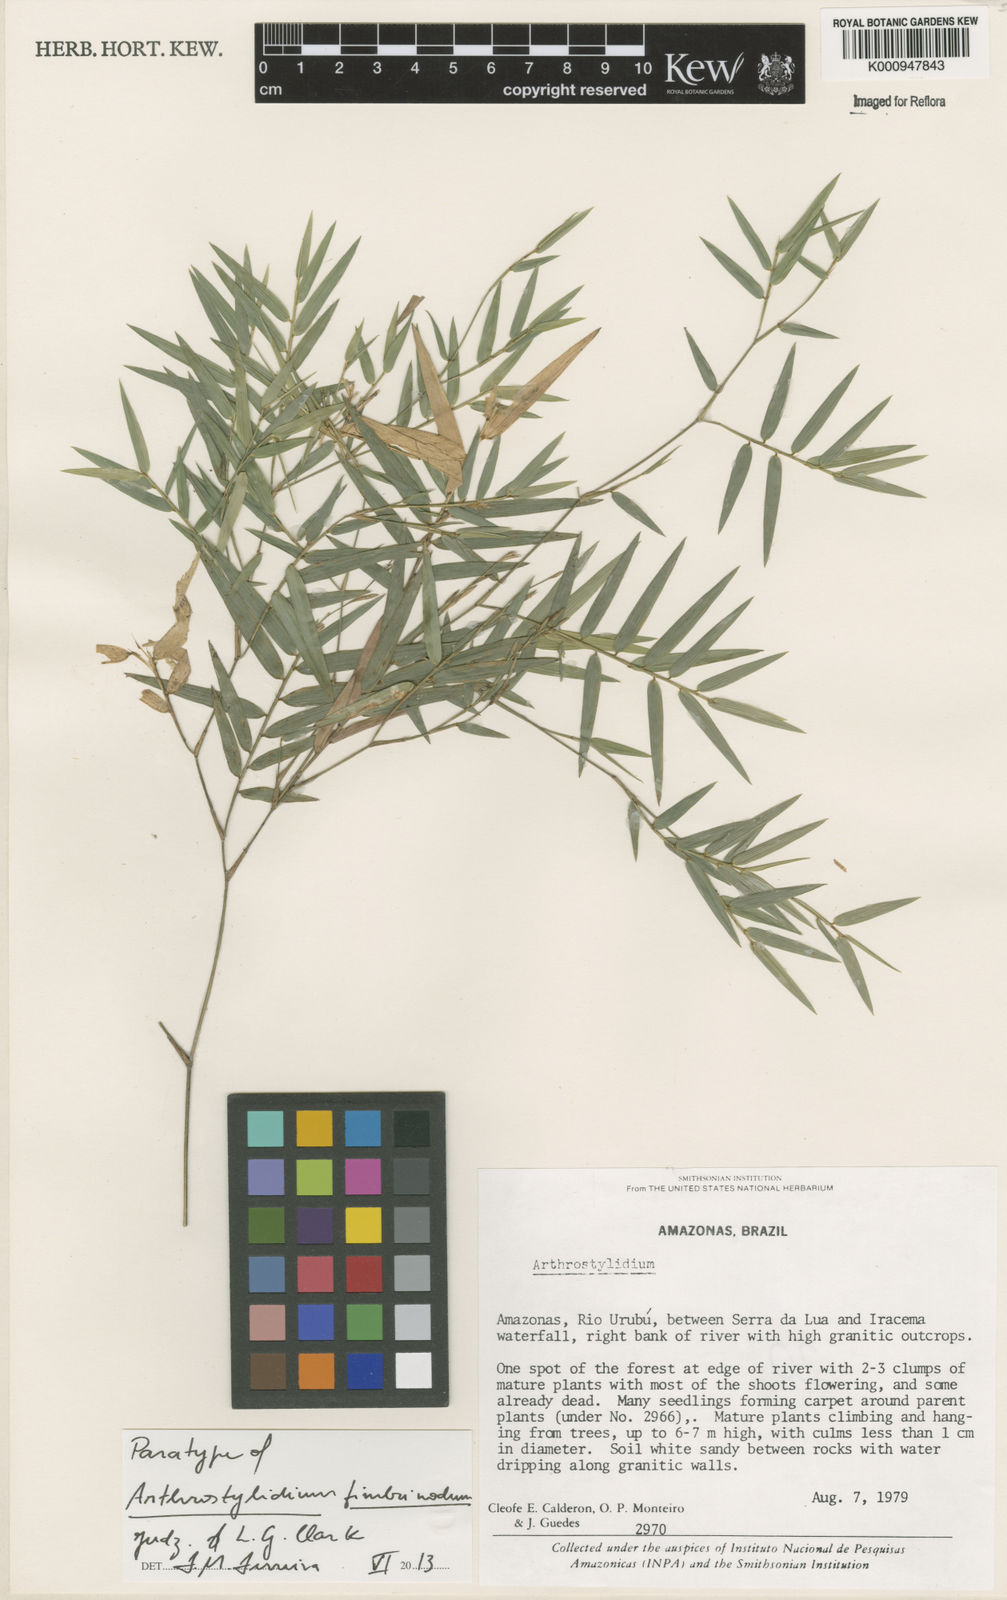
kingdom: Plantae
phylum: Tracheophyta
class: Liliopsida
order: Poales
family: Poaceae
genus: Arthrostylidium
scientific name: Arthrostylidium fimbrinodum
